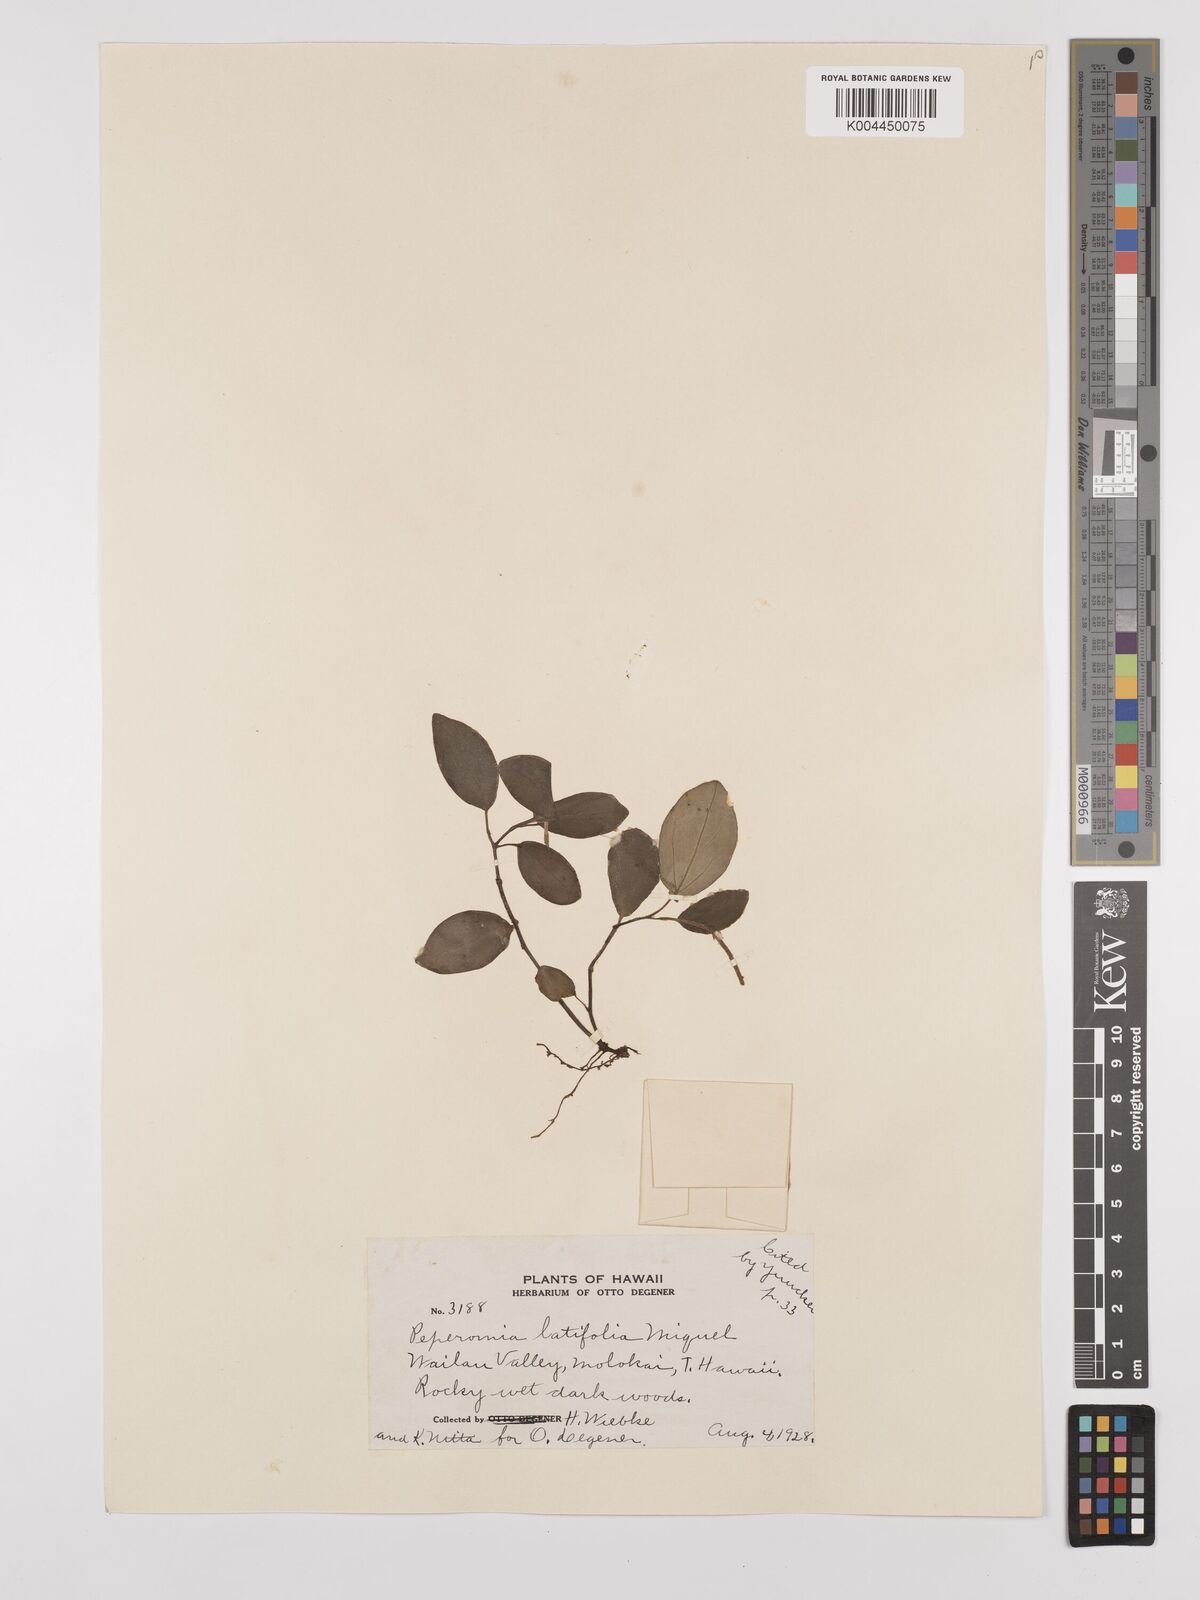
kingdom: Plantae
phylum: Tracheophyta
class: Magnoliopsida
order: Piperales
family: Piperaceae
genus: Peperomia
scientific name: Peperomia latifolia
